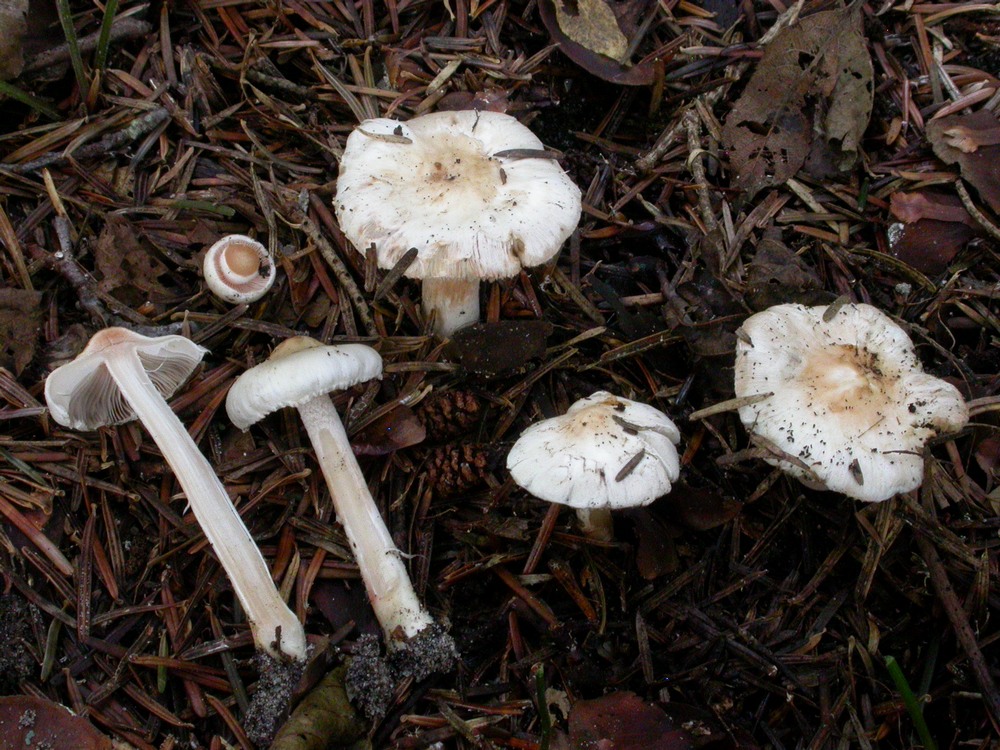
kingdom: Fungi
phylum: Basidiomycota
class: Agaricomycetes
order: Agaricales
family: Inocybaceae
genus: Inocybe
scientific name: Inocybe
